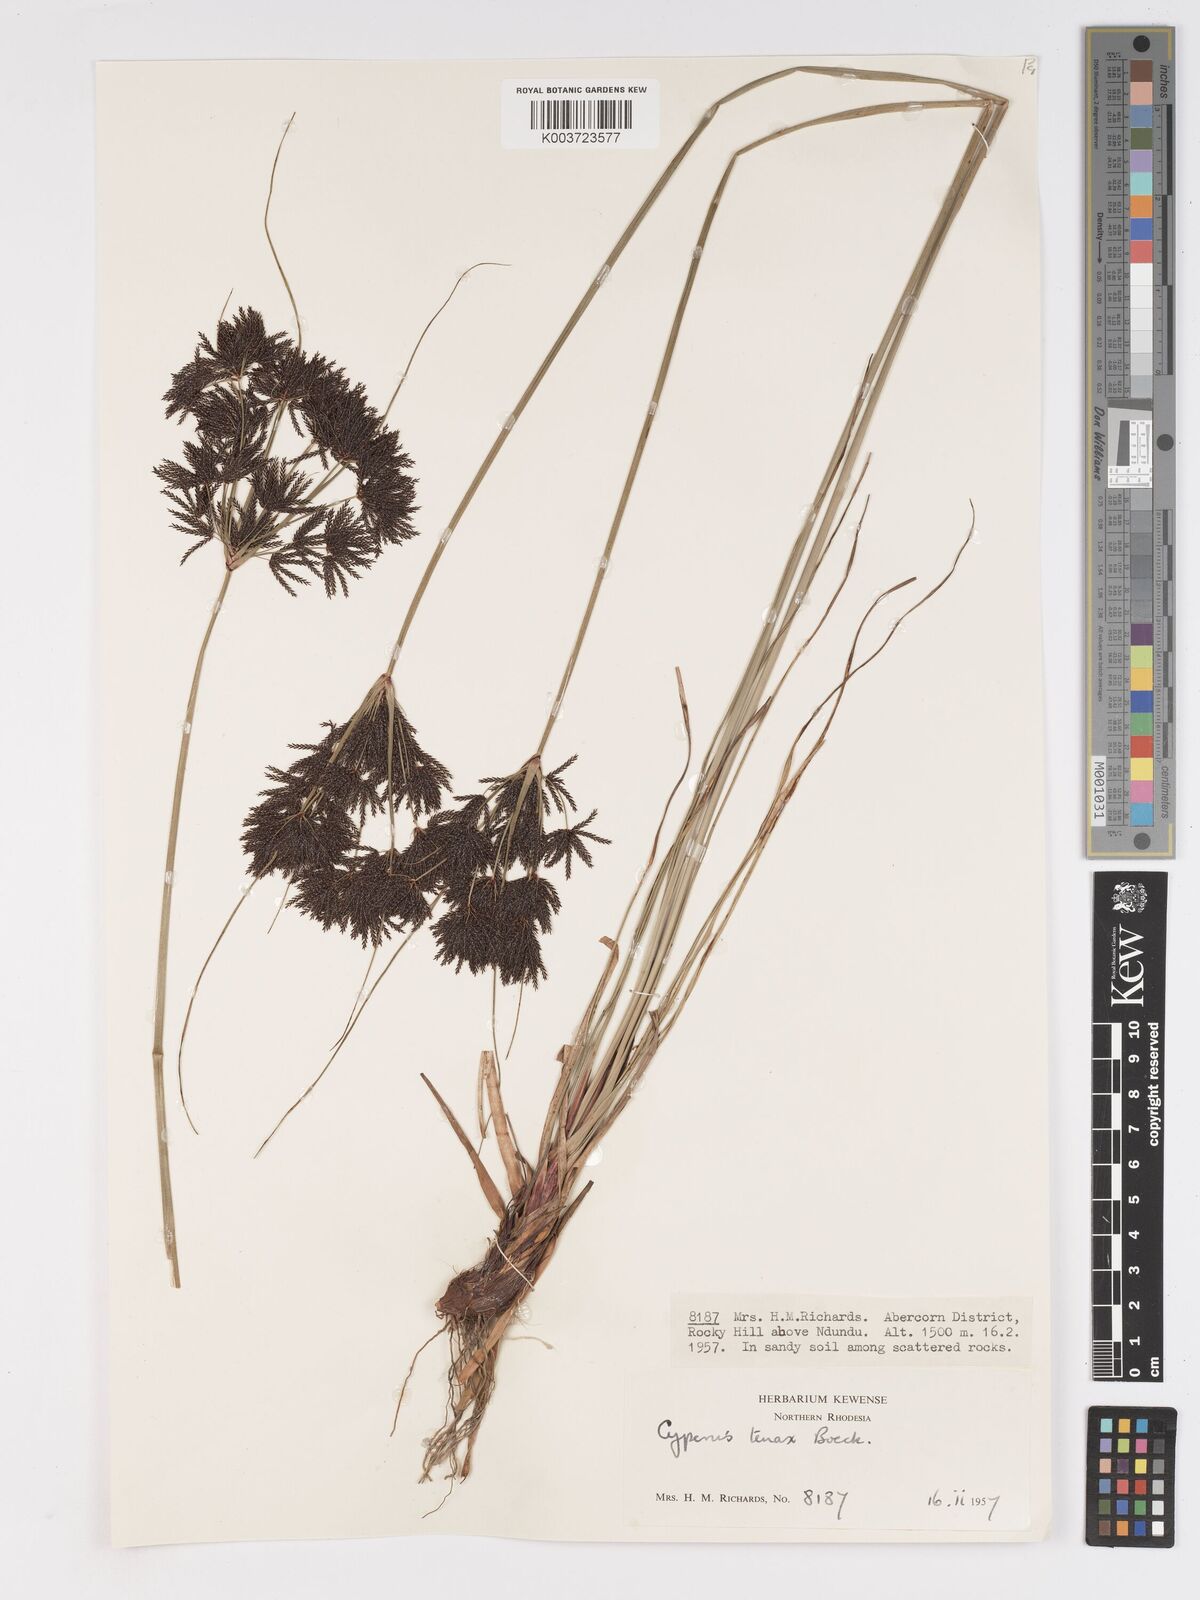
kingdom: Plantae
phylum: Tracheophyta
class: Liliopsida
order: Poales
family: Cyperaceae
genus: Cyperus
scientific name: Cyperus tenax
